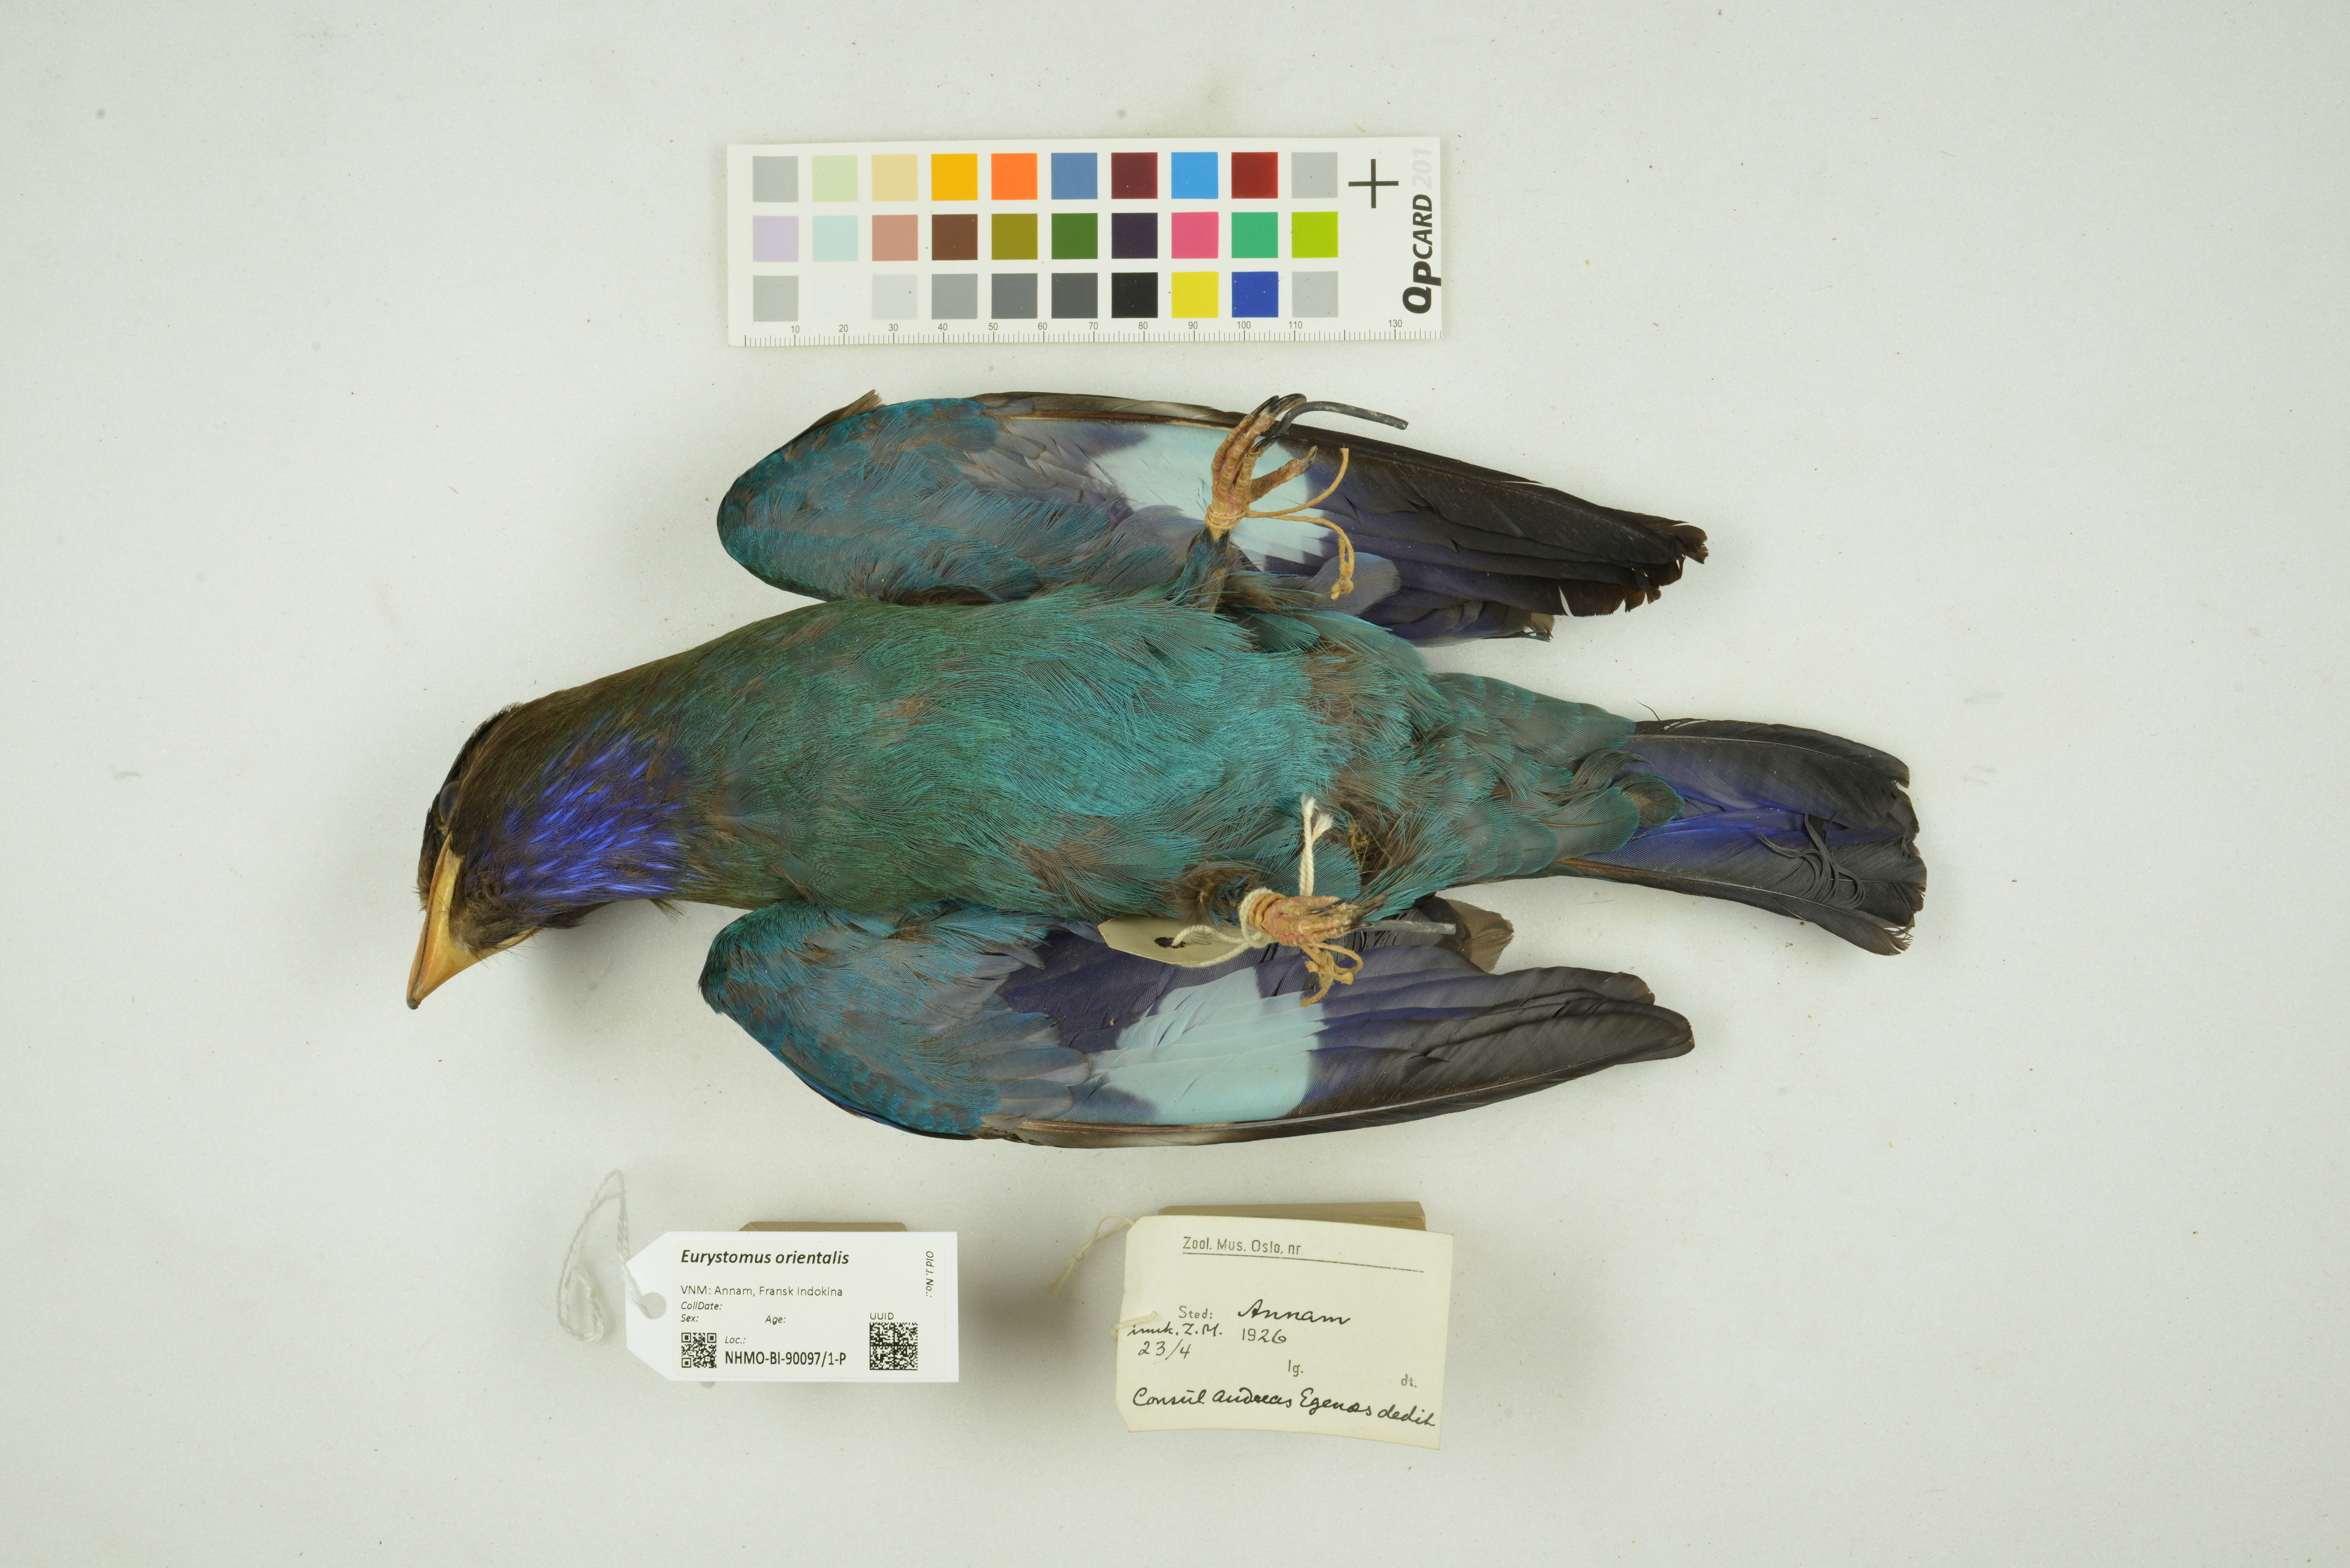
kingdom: Animalia
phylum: Chordata
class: Aves
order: Coraciiformes
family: Coraciidae
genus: Eurystomus
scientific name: Eurystomus orientalis
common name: Oriental dollarbird
